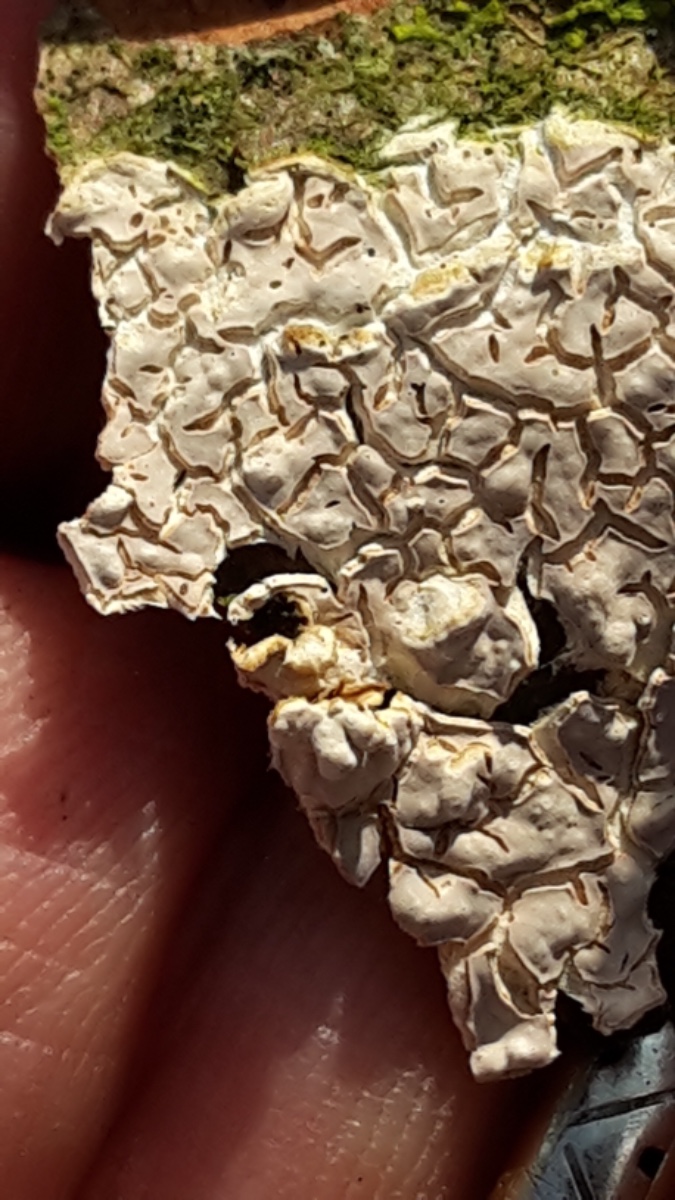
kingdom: Fungi
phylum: Basidiomycota
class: Agaricomycetes
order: Agaricales
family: Physalacriaceae
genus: Cylindrobasidium
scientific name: Cylindrobasidium evolvens
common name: sprækkehinde
